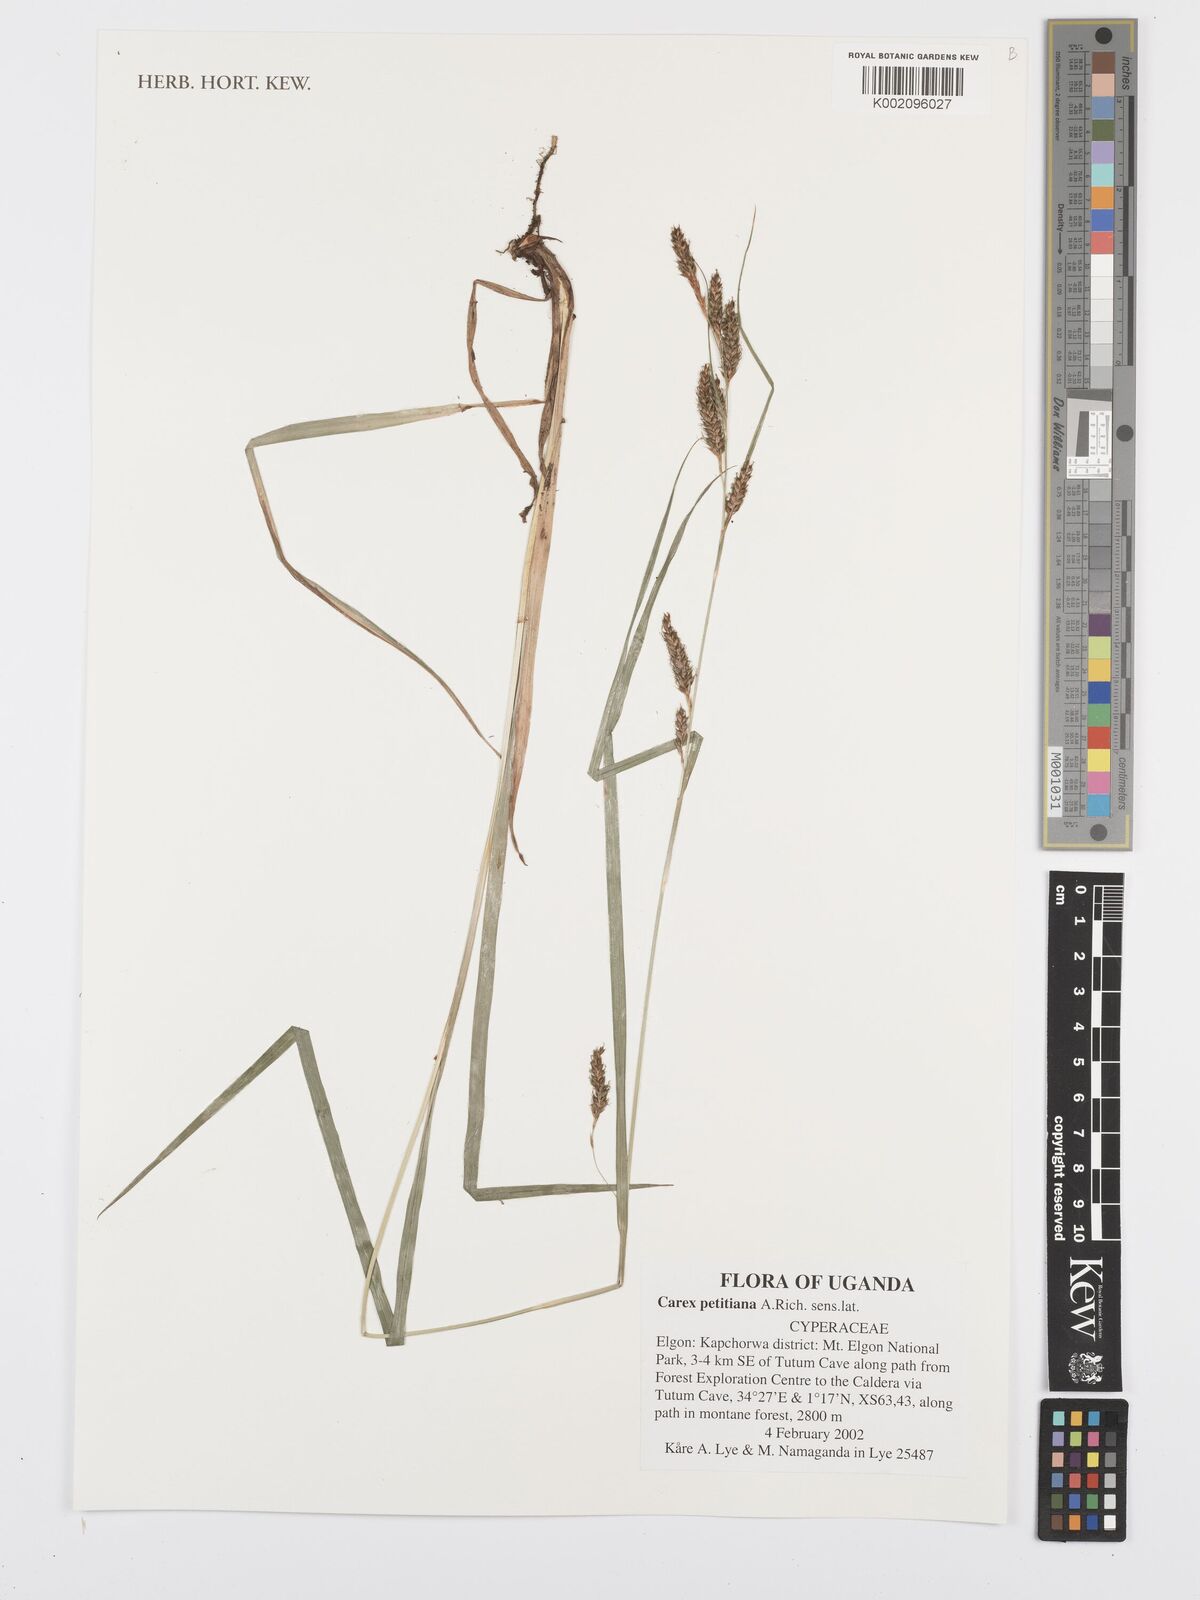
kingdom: Plantae
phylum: Tracheophyta
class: Liliopsida
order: Poales
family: Cyperaceae
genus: Carex
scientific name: Carex petitiana
